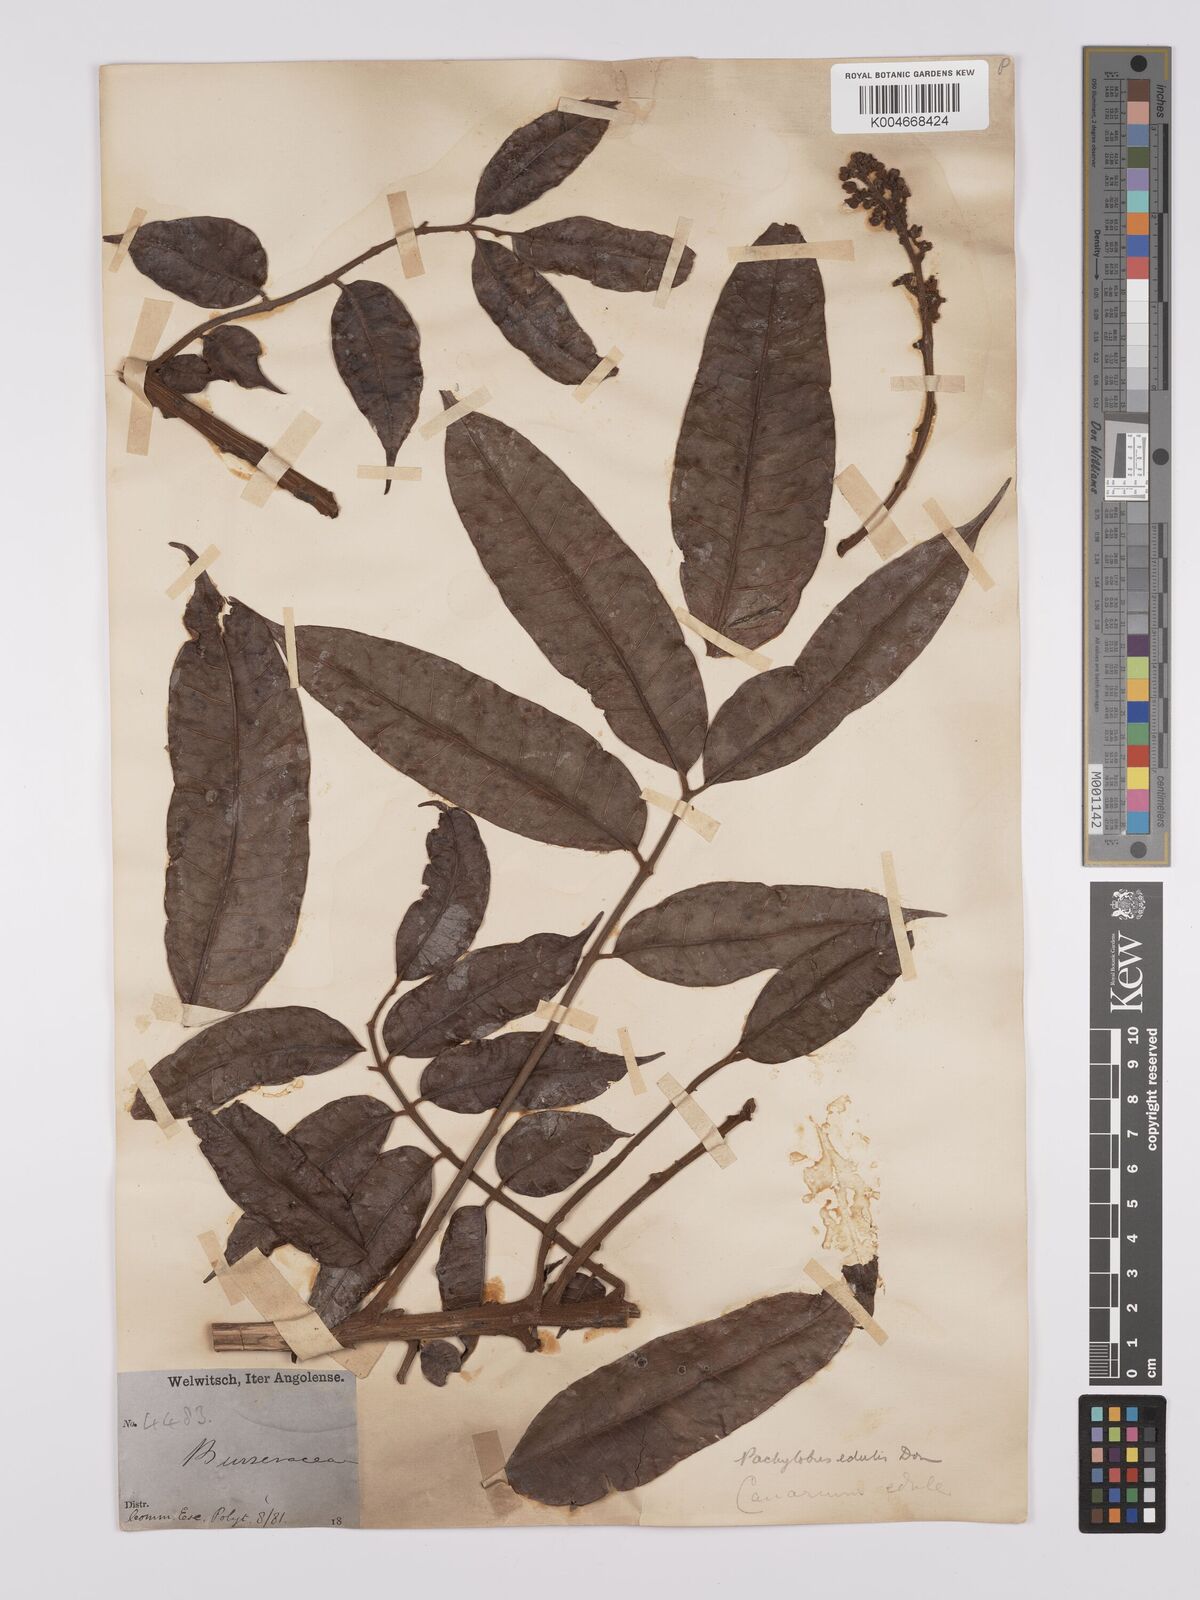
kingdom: Plantae
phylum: Tracheophyta
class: Magnoliopsida
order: Sapindales
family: Burseraceae
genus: Pachylobus
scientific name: Pachylobus edulis
